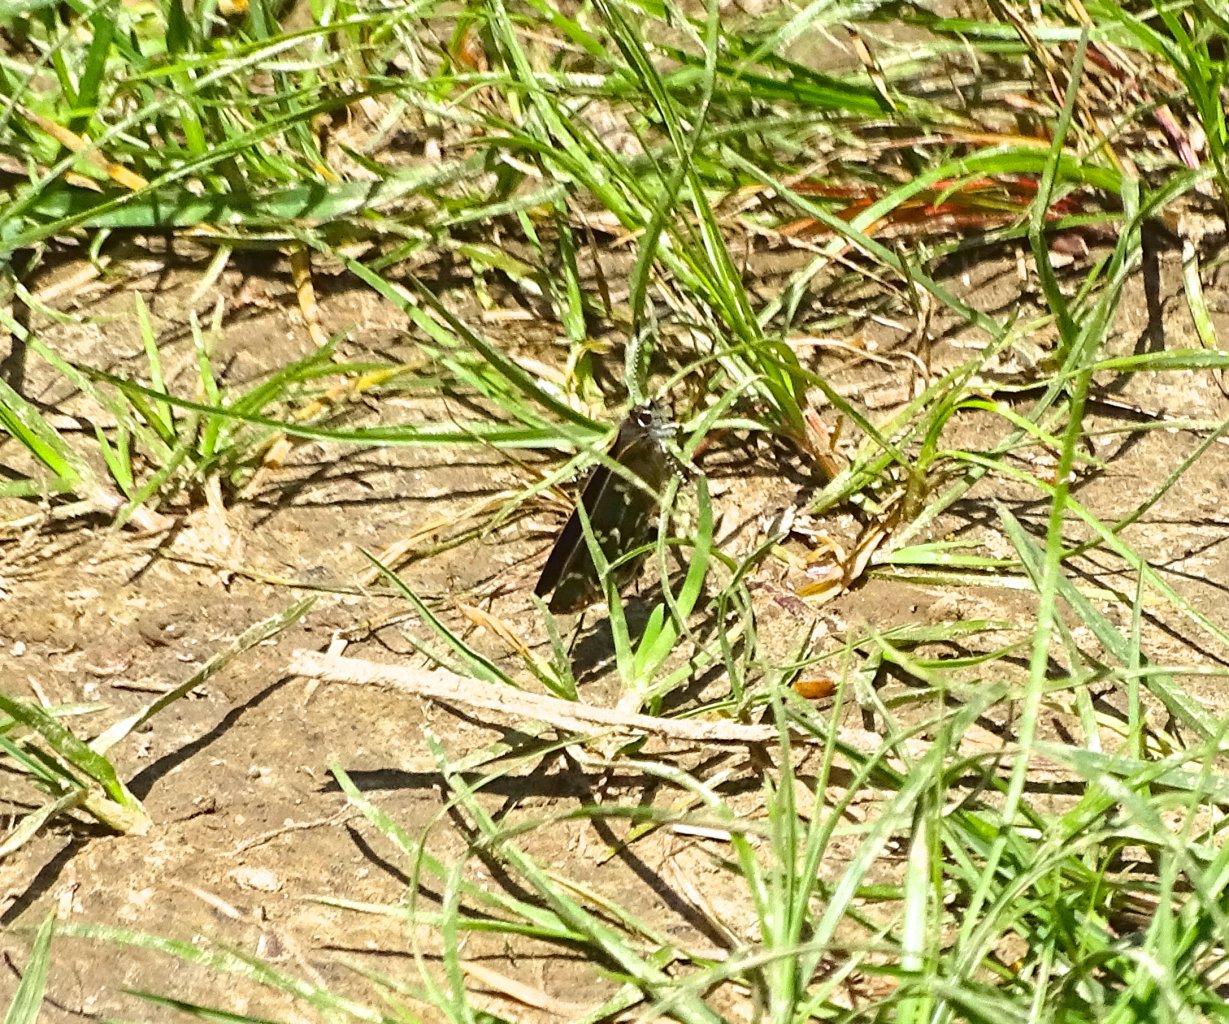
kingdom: Animalia
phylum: Arthropoda
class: Insecta
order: Lepidoptera
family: Lycaenidae
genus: Mitoura
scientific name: Mitoura gryneus
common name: Juniper Hairstreak
